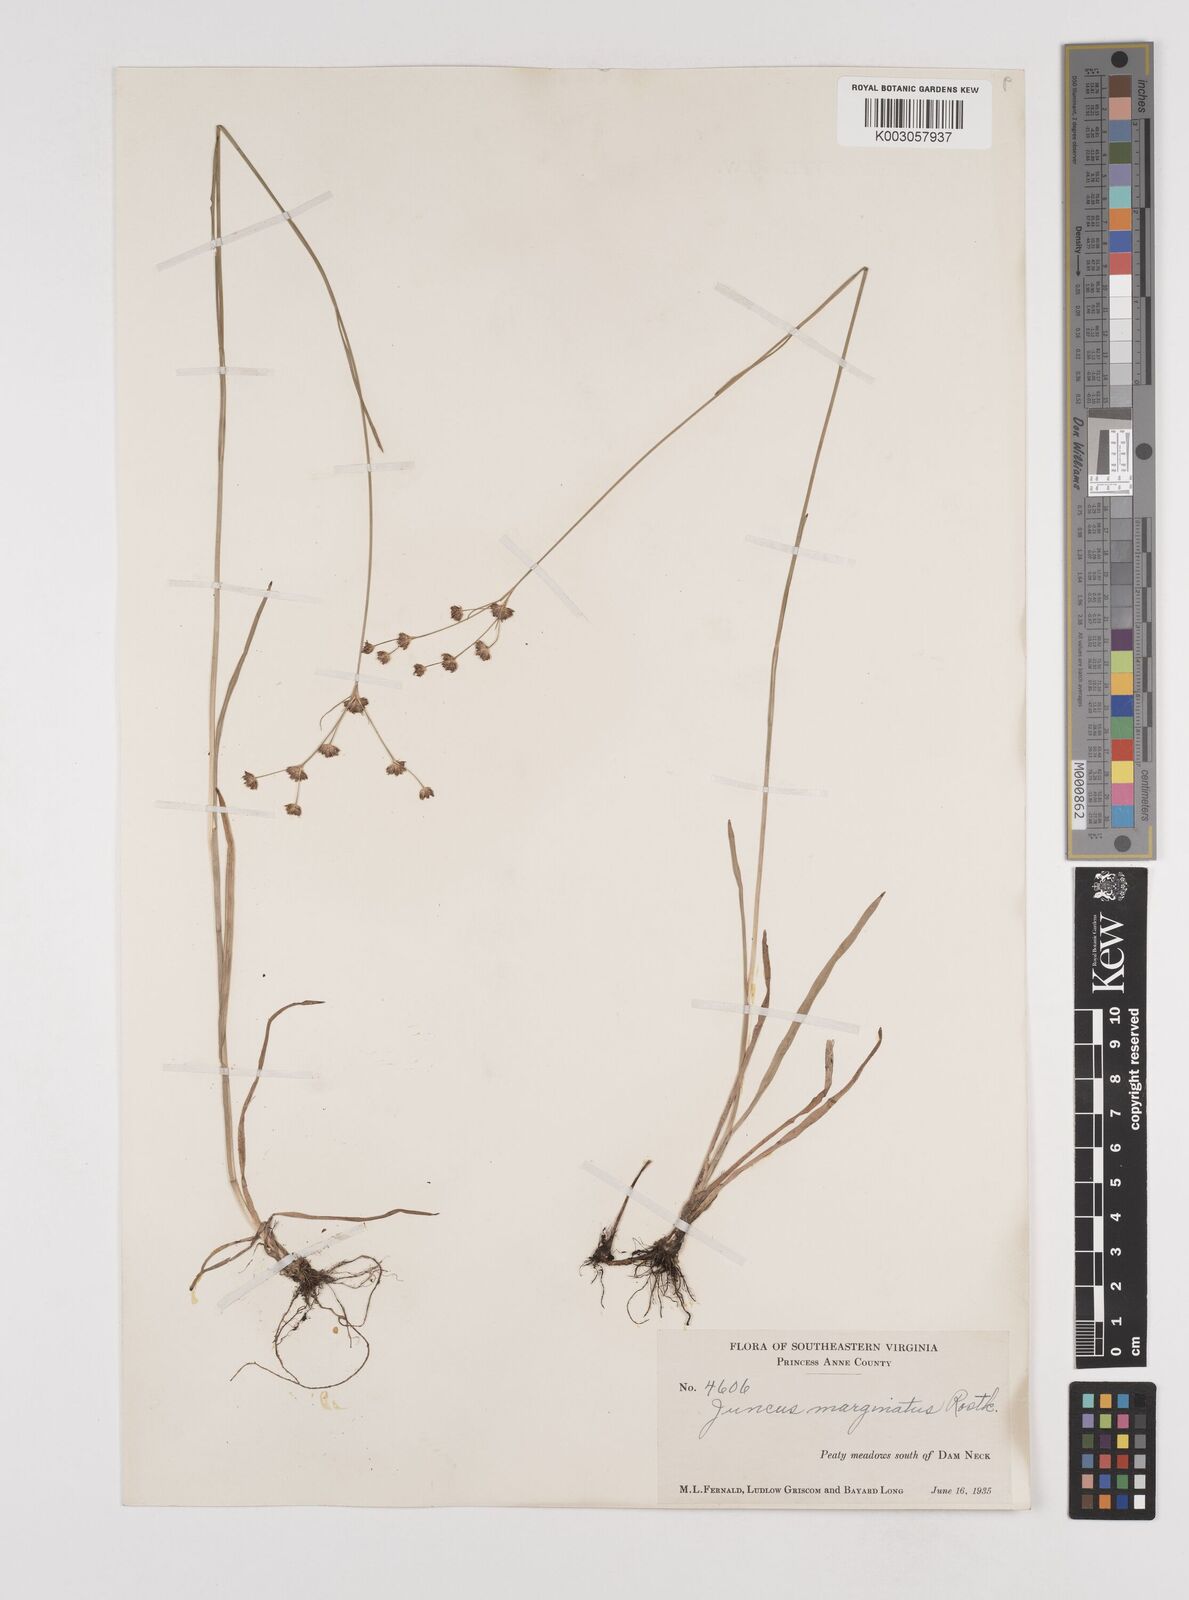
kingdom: Plantae
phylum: Tracheophyta
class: Liliopsida
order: Poales
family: Juncaceae
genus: Juncus
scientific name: Juncus marginatus
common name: Grass-leaf rush
